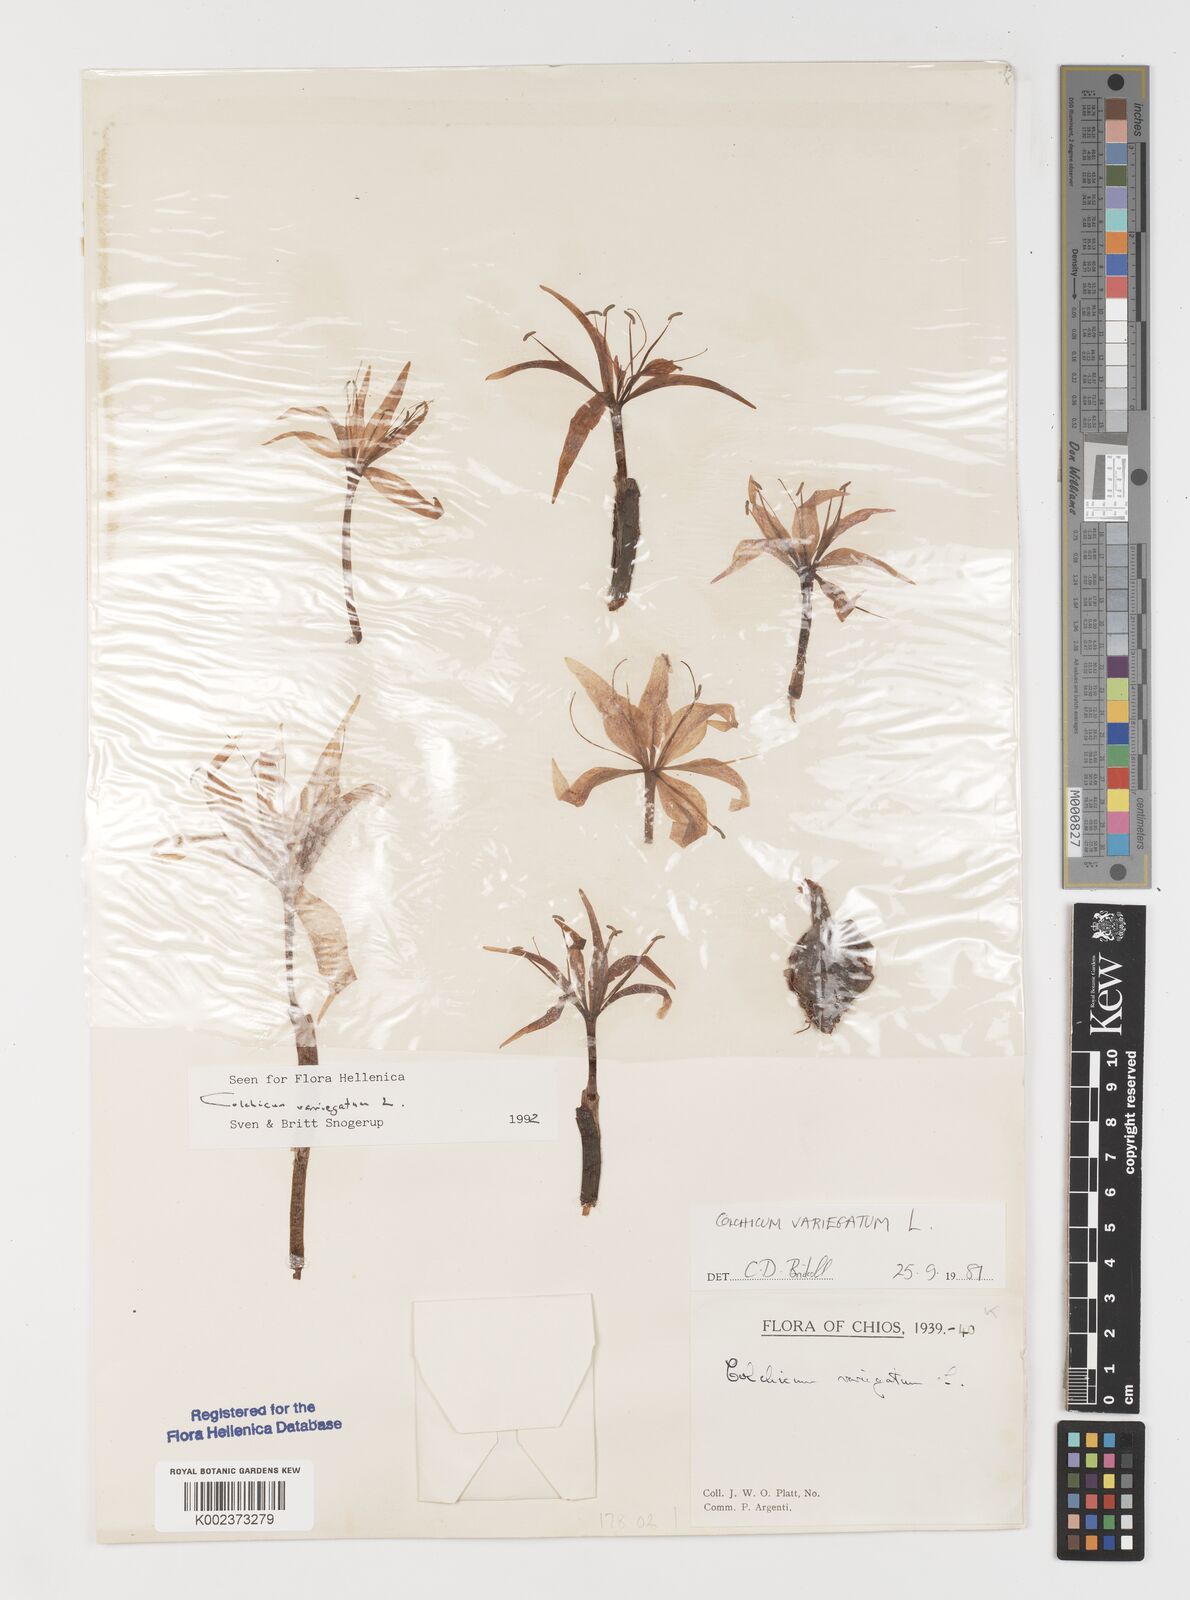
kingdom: Plantae
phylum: Tracheophyta
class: Liliopsida
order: Liliales
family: Colchicaceae
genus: Colchicum
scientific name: Colchicum variegatum
